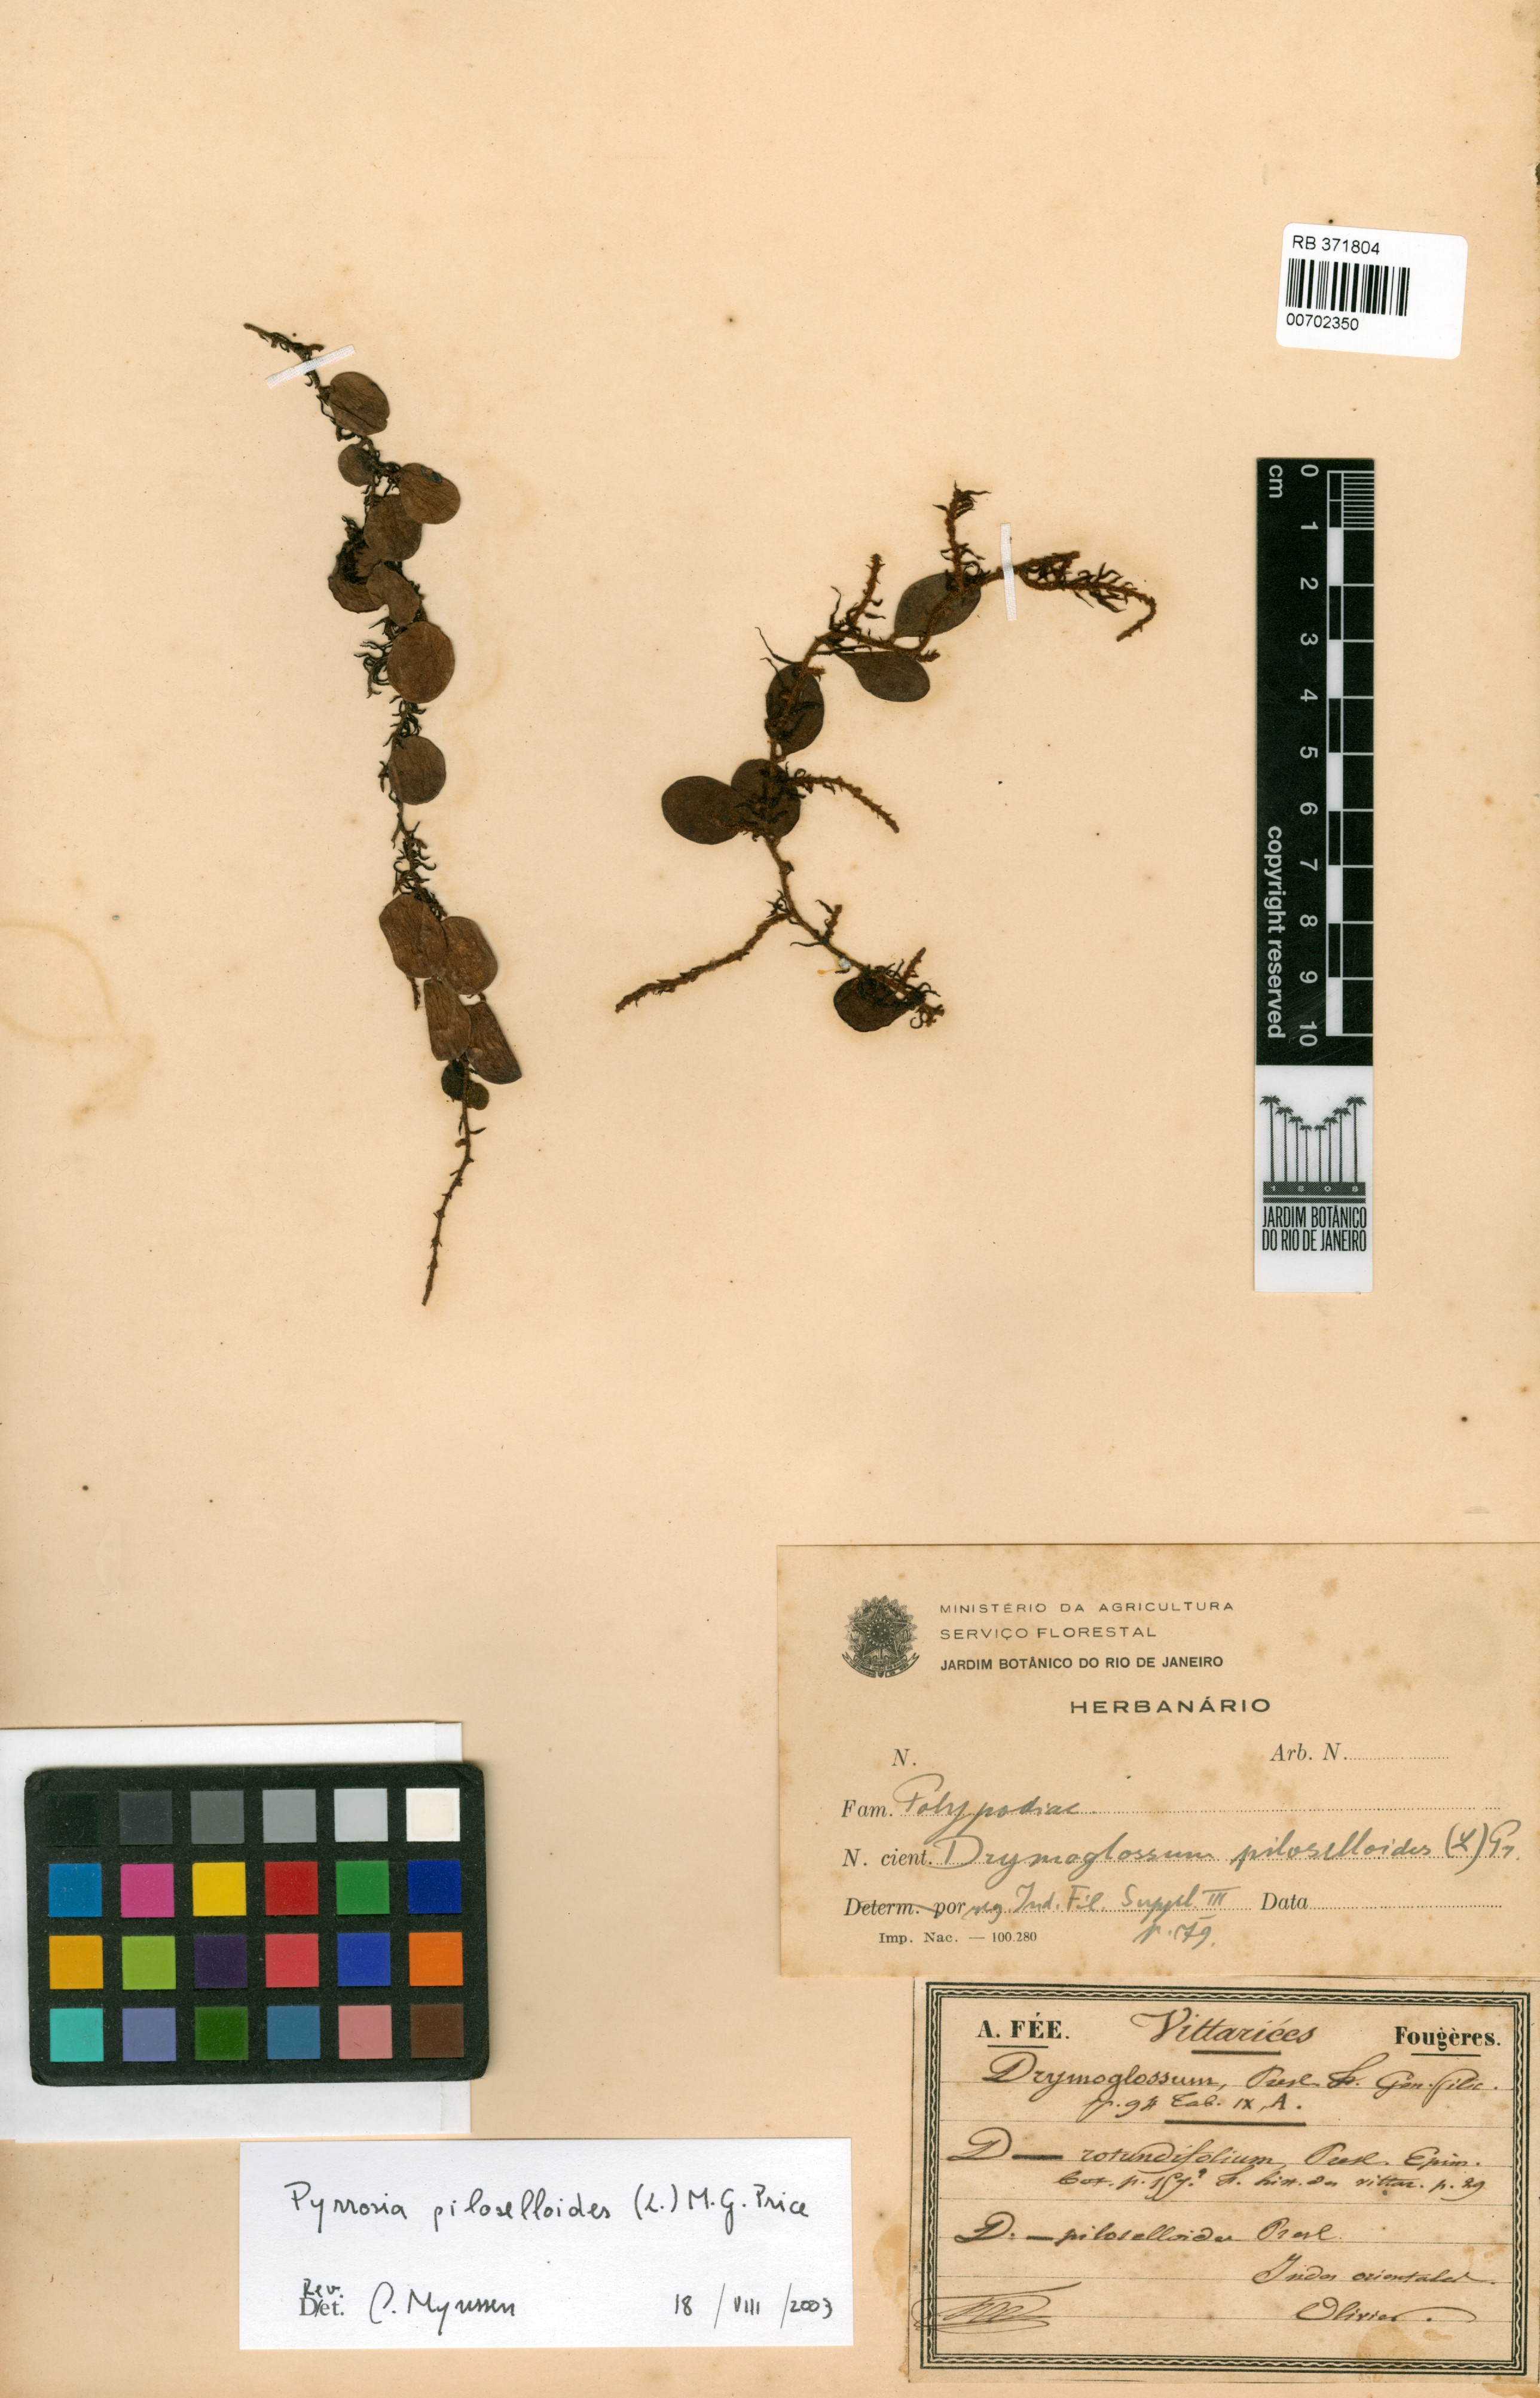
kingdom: Plantae
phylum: Tracheophyta
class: Polypodiopsida
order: Polypodiales
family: Polypodiaceae
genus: Pyrrosia
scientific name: Pyrrosia piloselloides
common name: Epiphytic creeping fern
